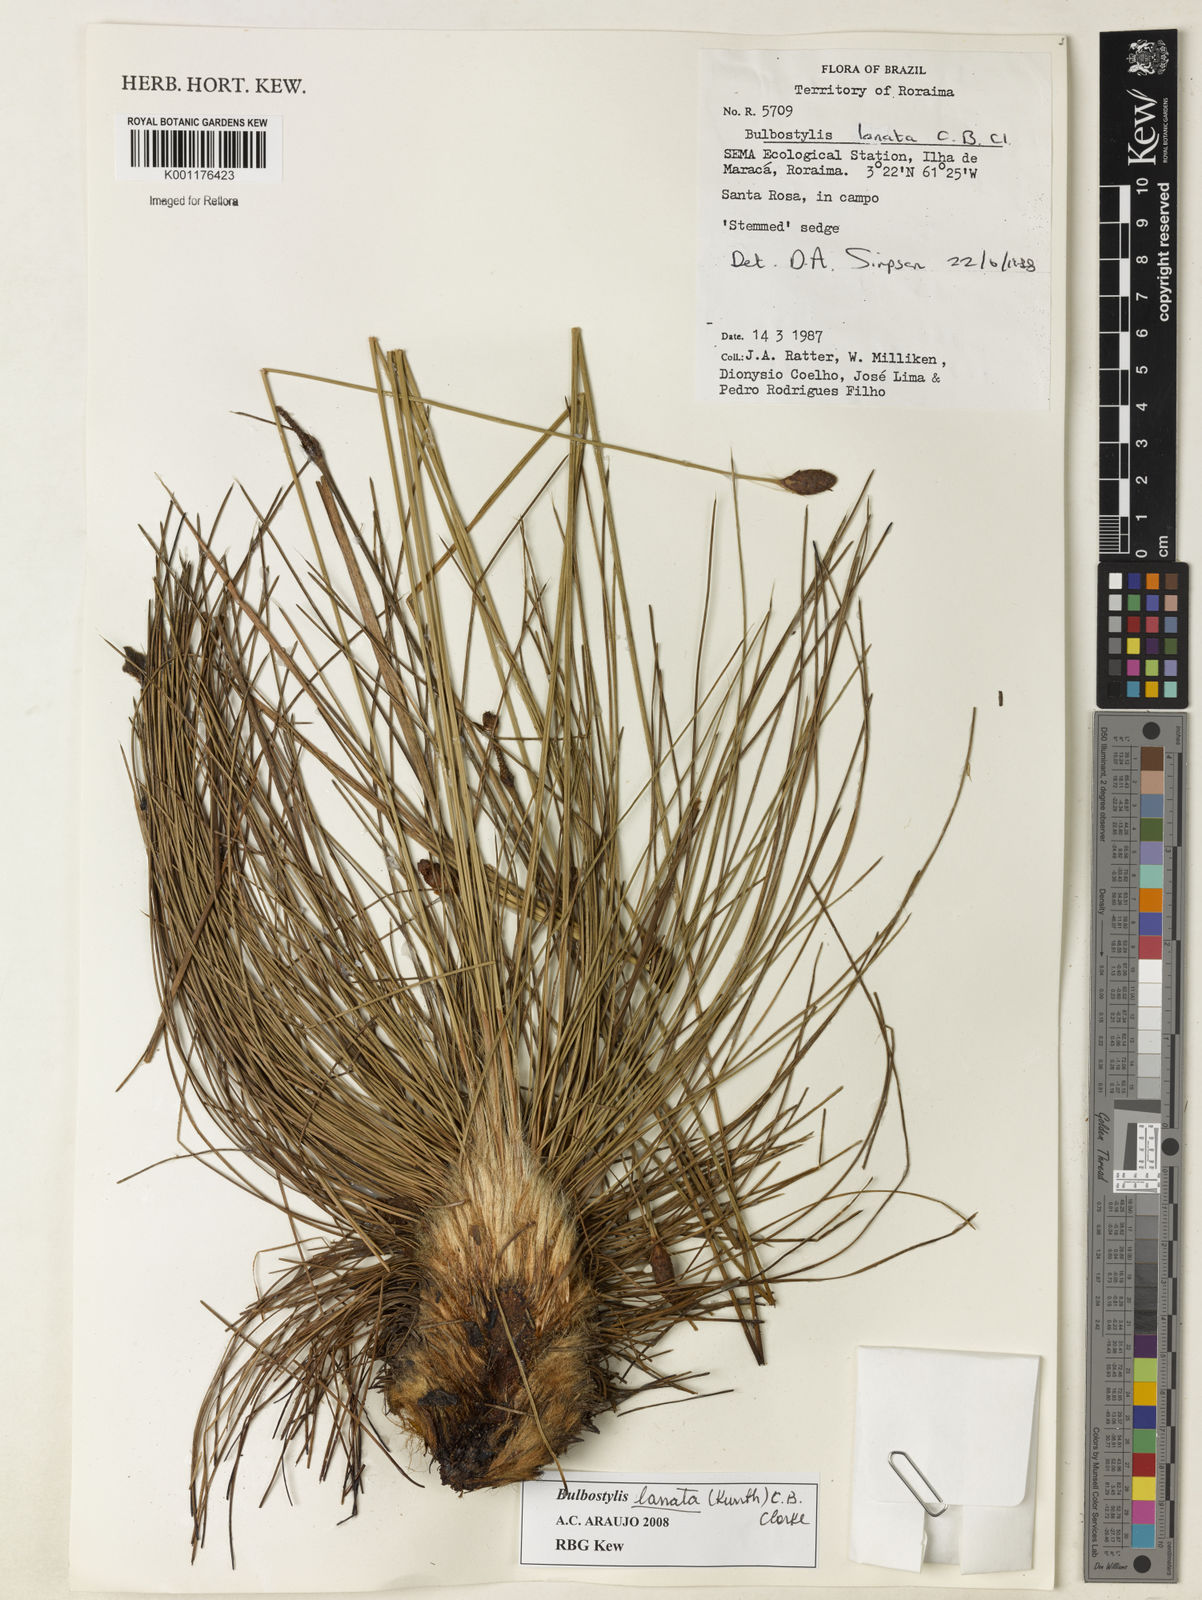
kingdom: Plantae
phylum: Tracheophyta
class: Liliopsida
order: Poales
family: Cyperaceae
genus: Bulbostylis
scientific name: Bulbostylis lanata
